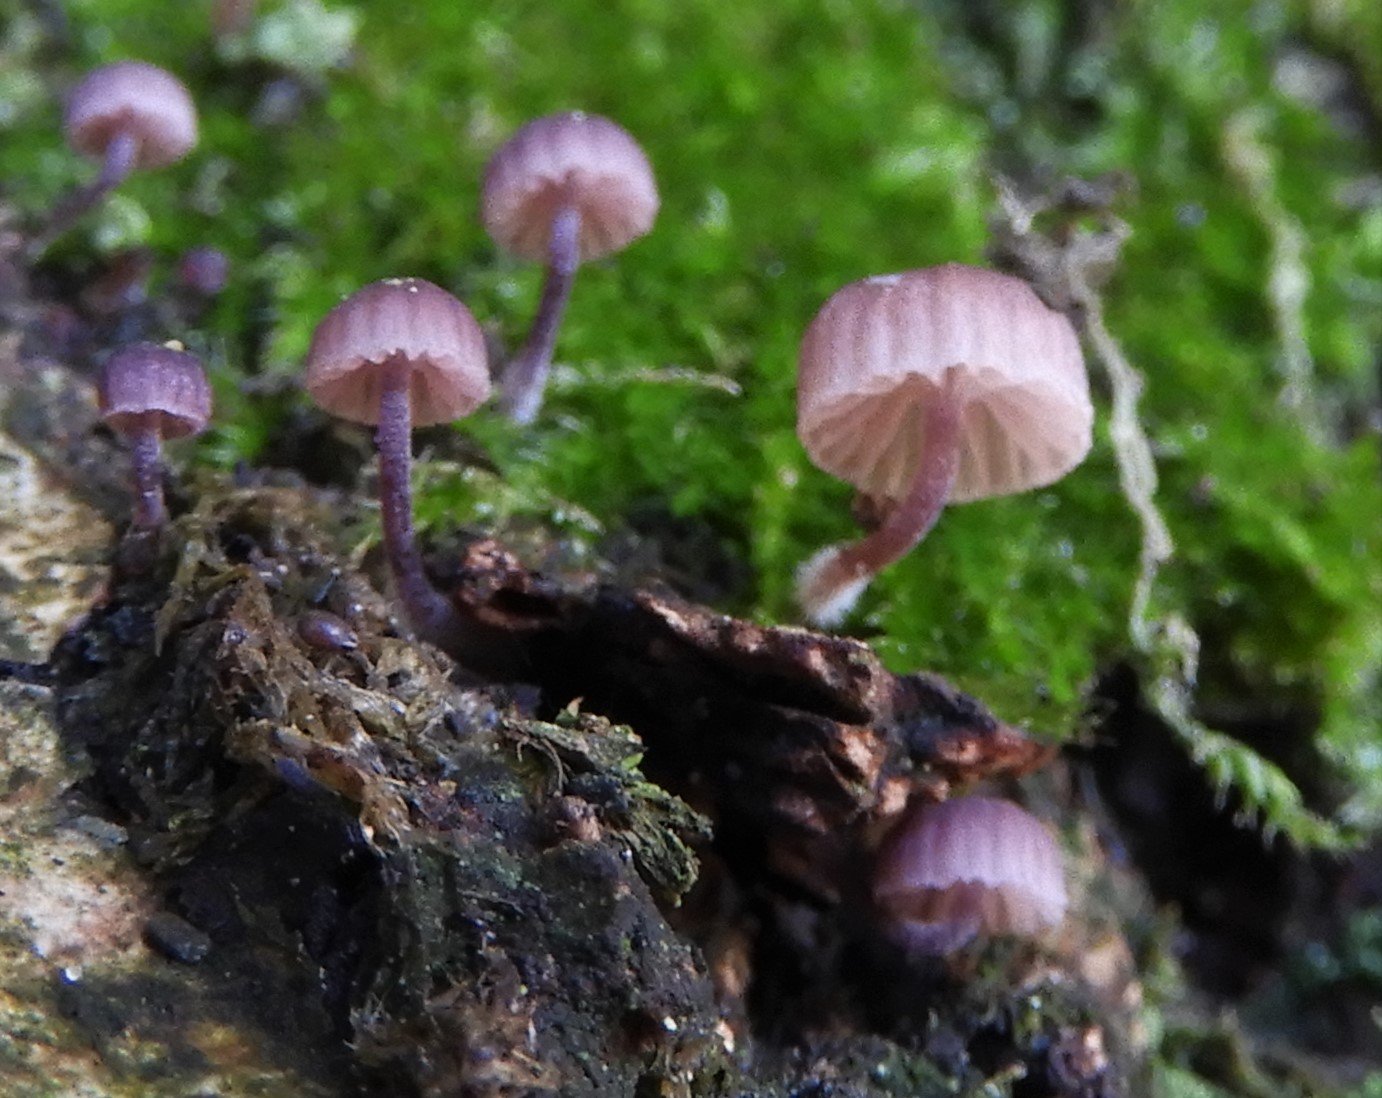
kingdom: Fungi
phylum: Basidiomycota
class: Agaricomycetes
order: Agaricales
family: Mycenaceae
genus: Mycena
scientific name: Mycena meliigena
